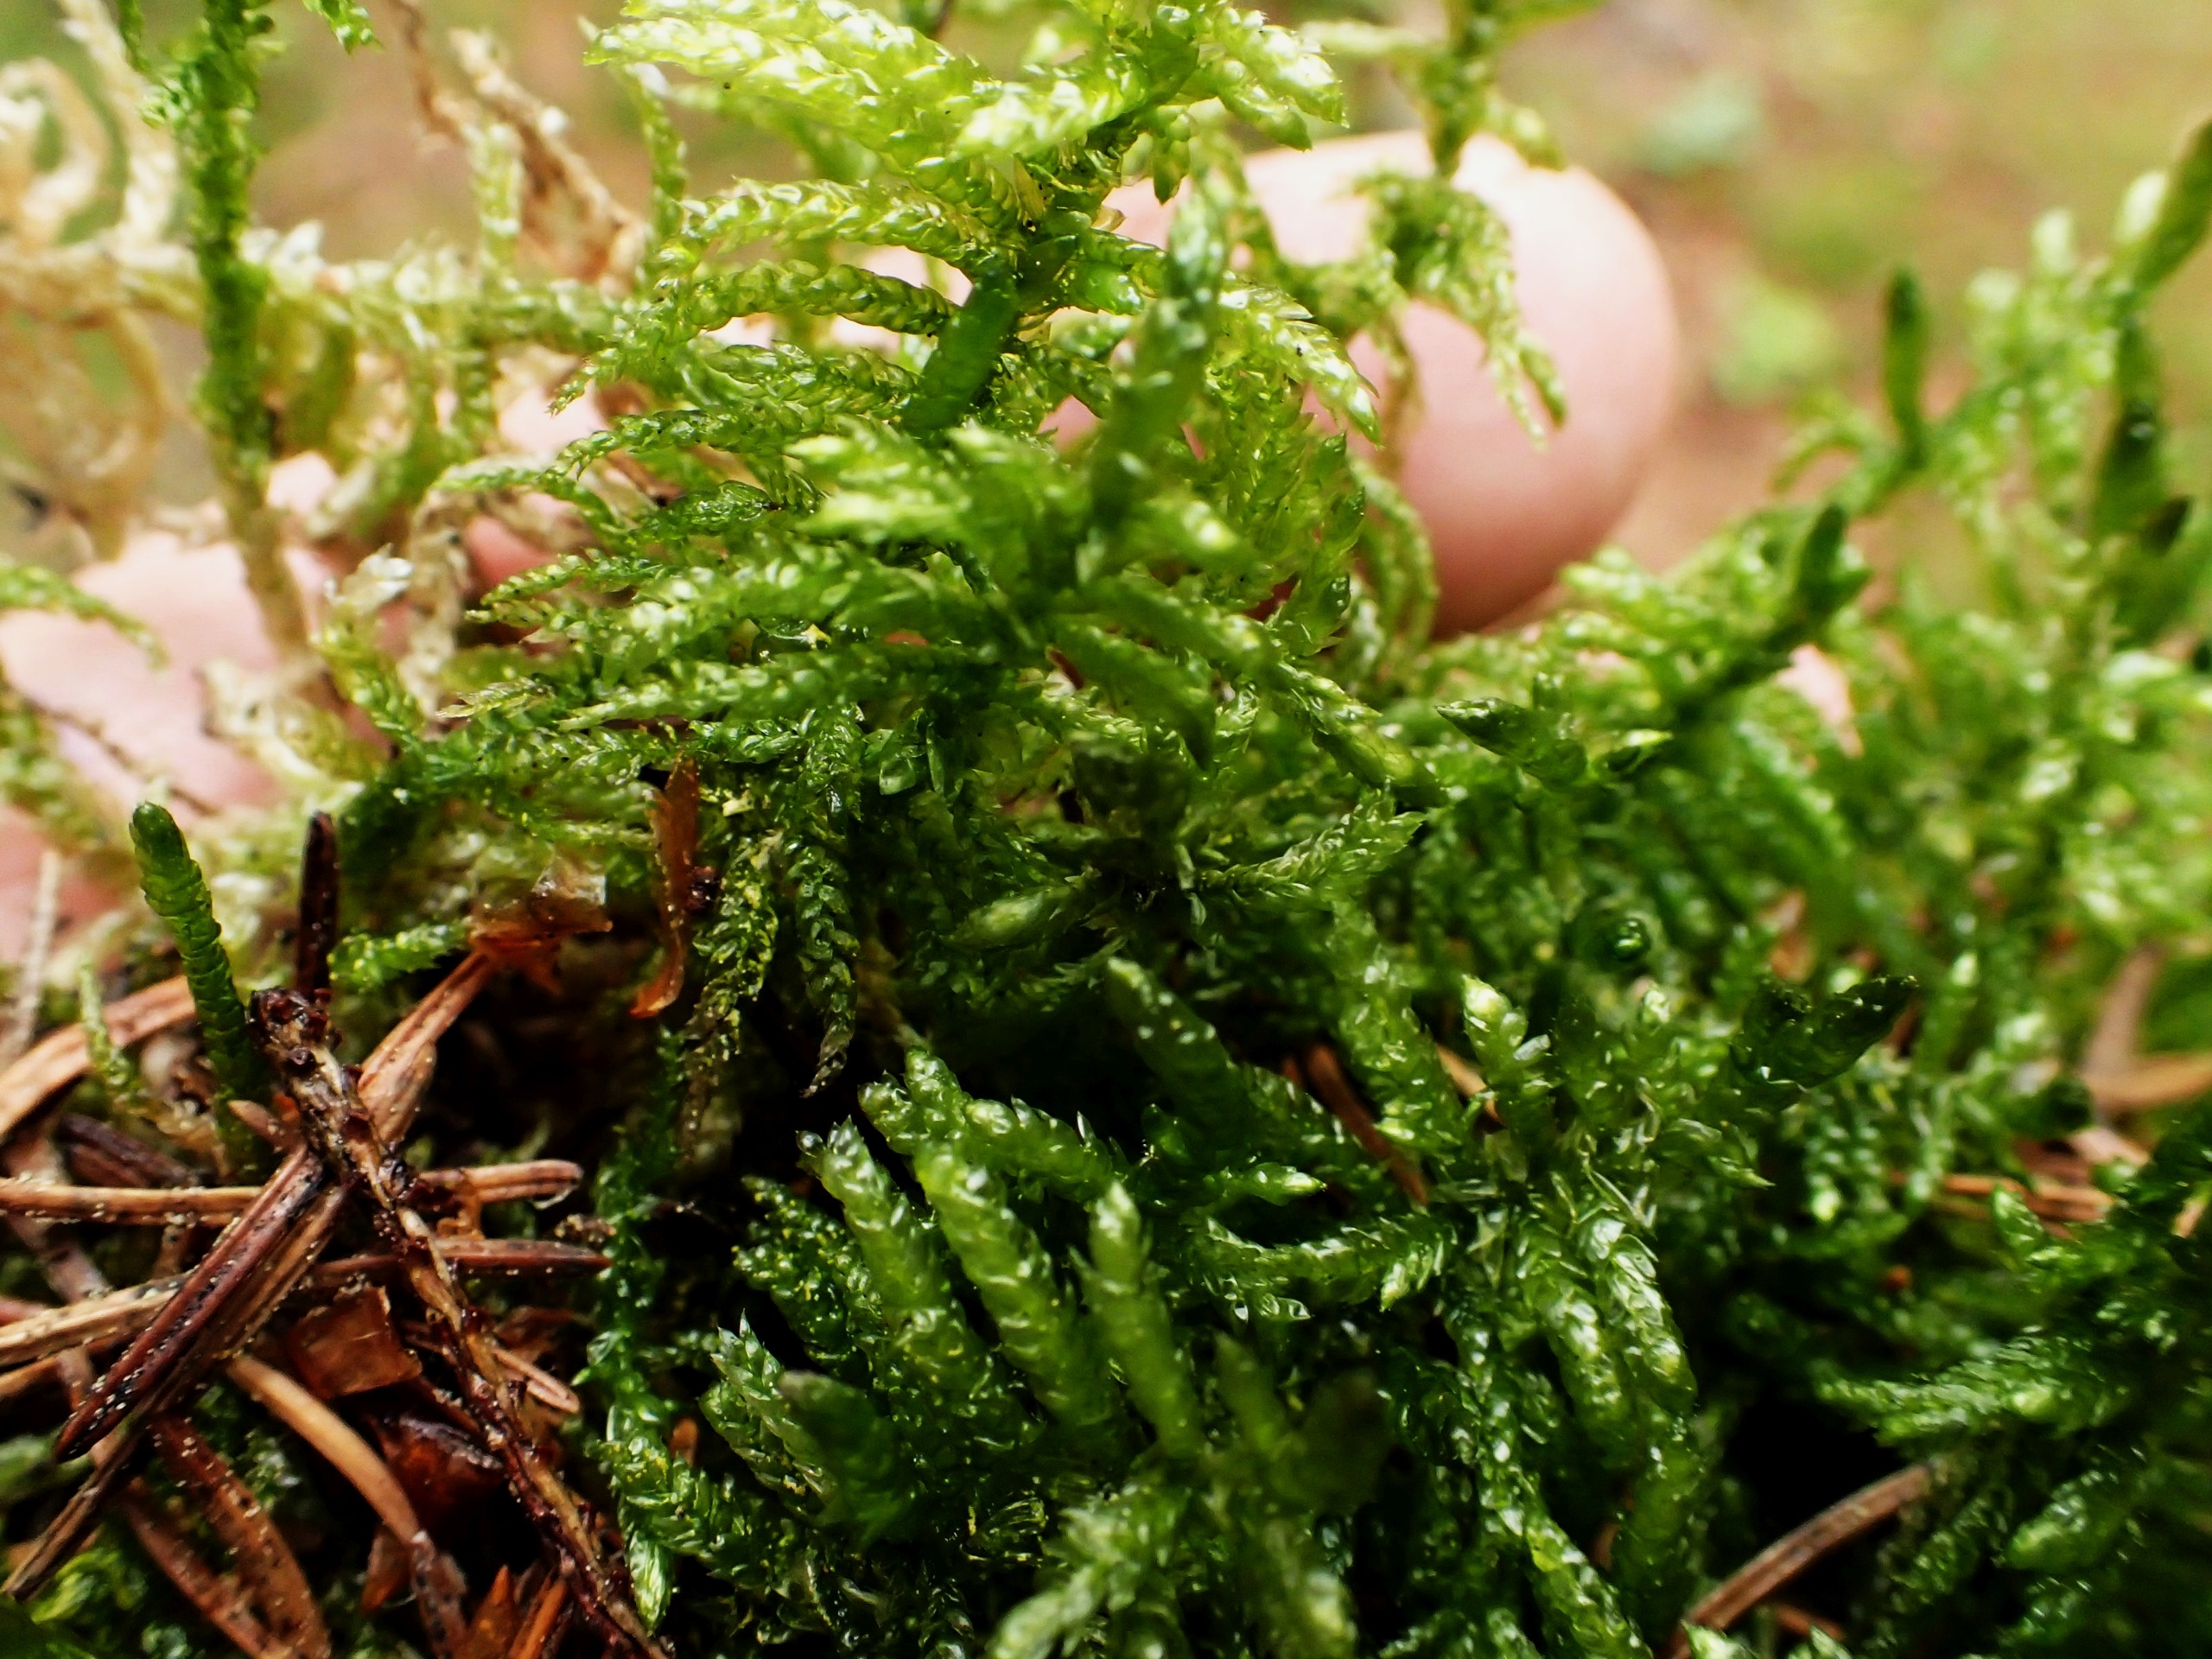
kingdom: Plantae
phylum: Bryophyta
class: Bryopsida
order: Hypnales
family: Brachytheciaceae
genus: Pseudoscleropodium
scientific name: Pseudoscleropodium purum
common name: Hulbladet fedtmos
